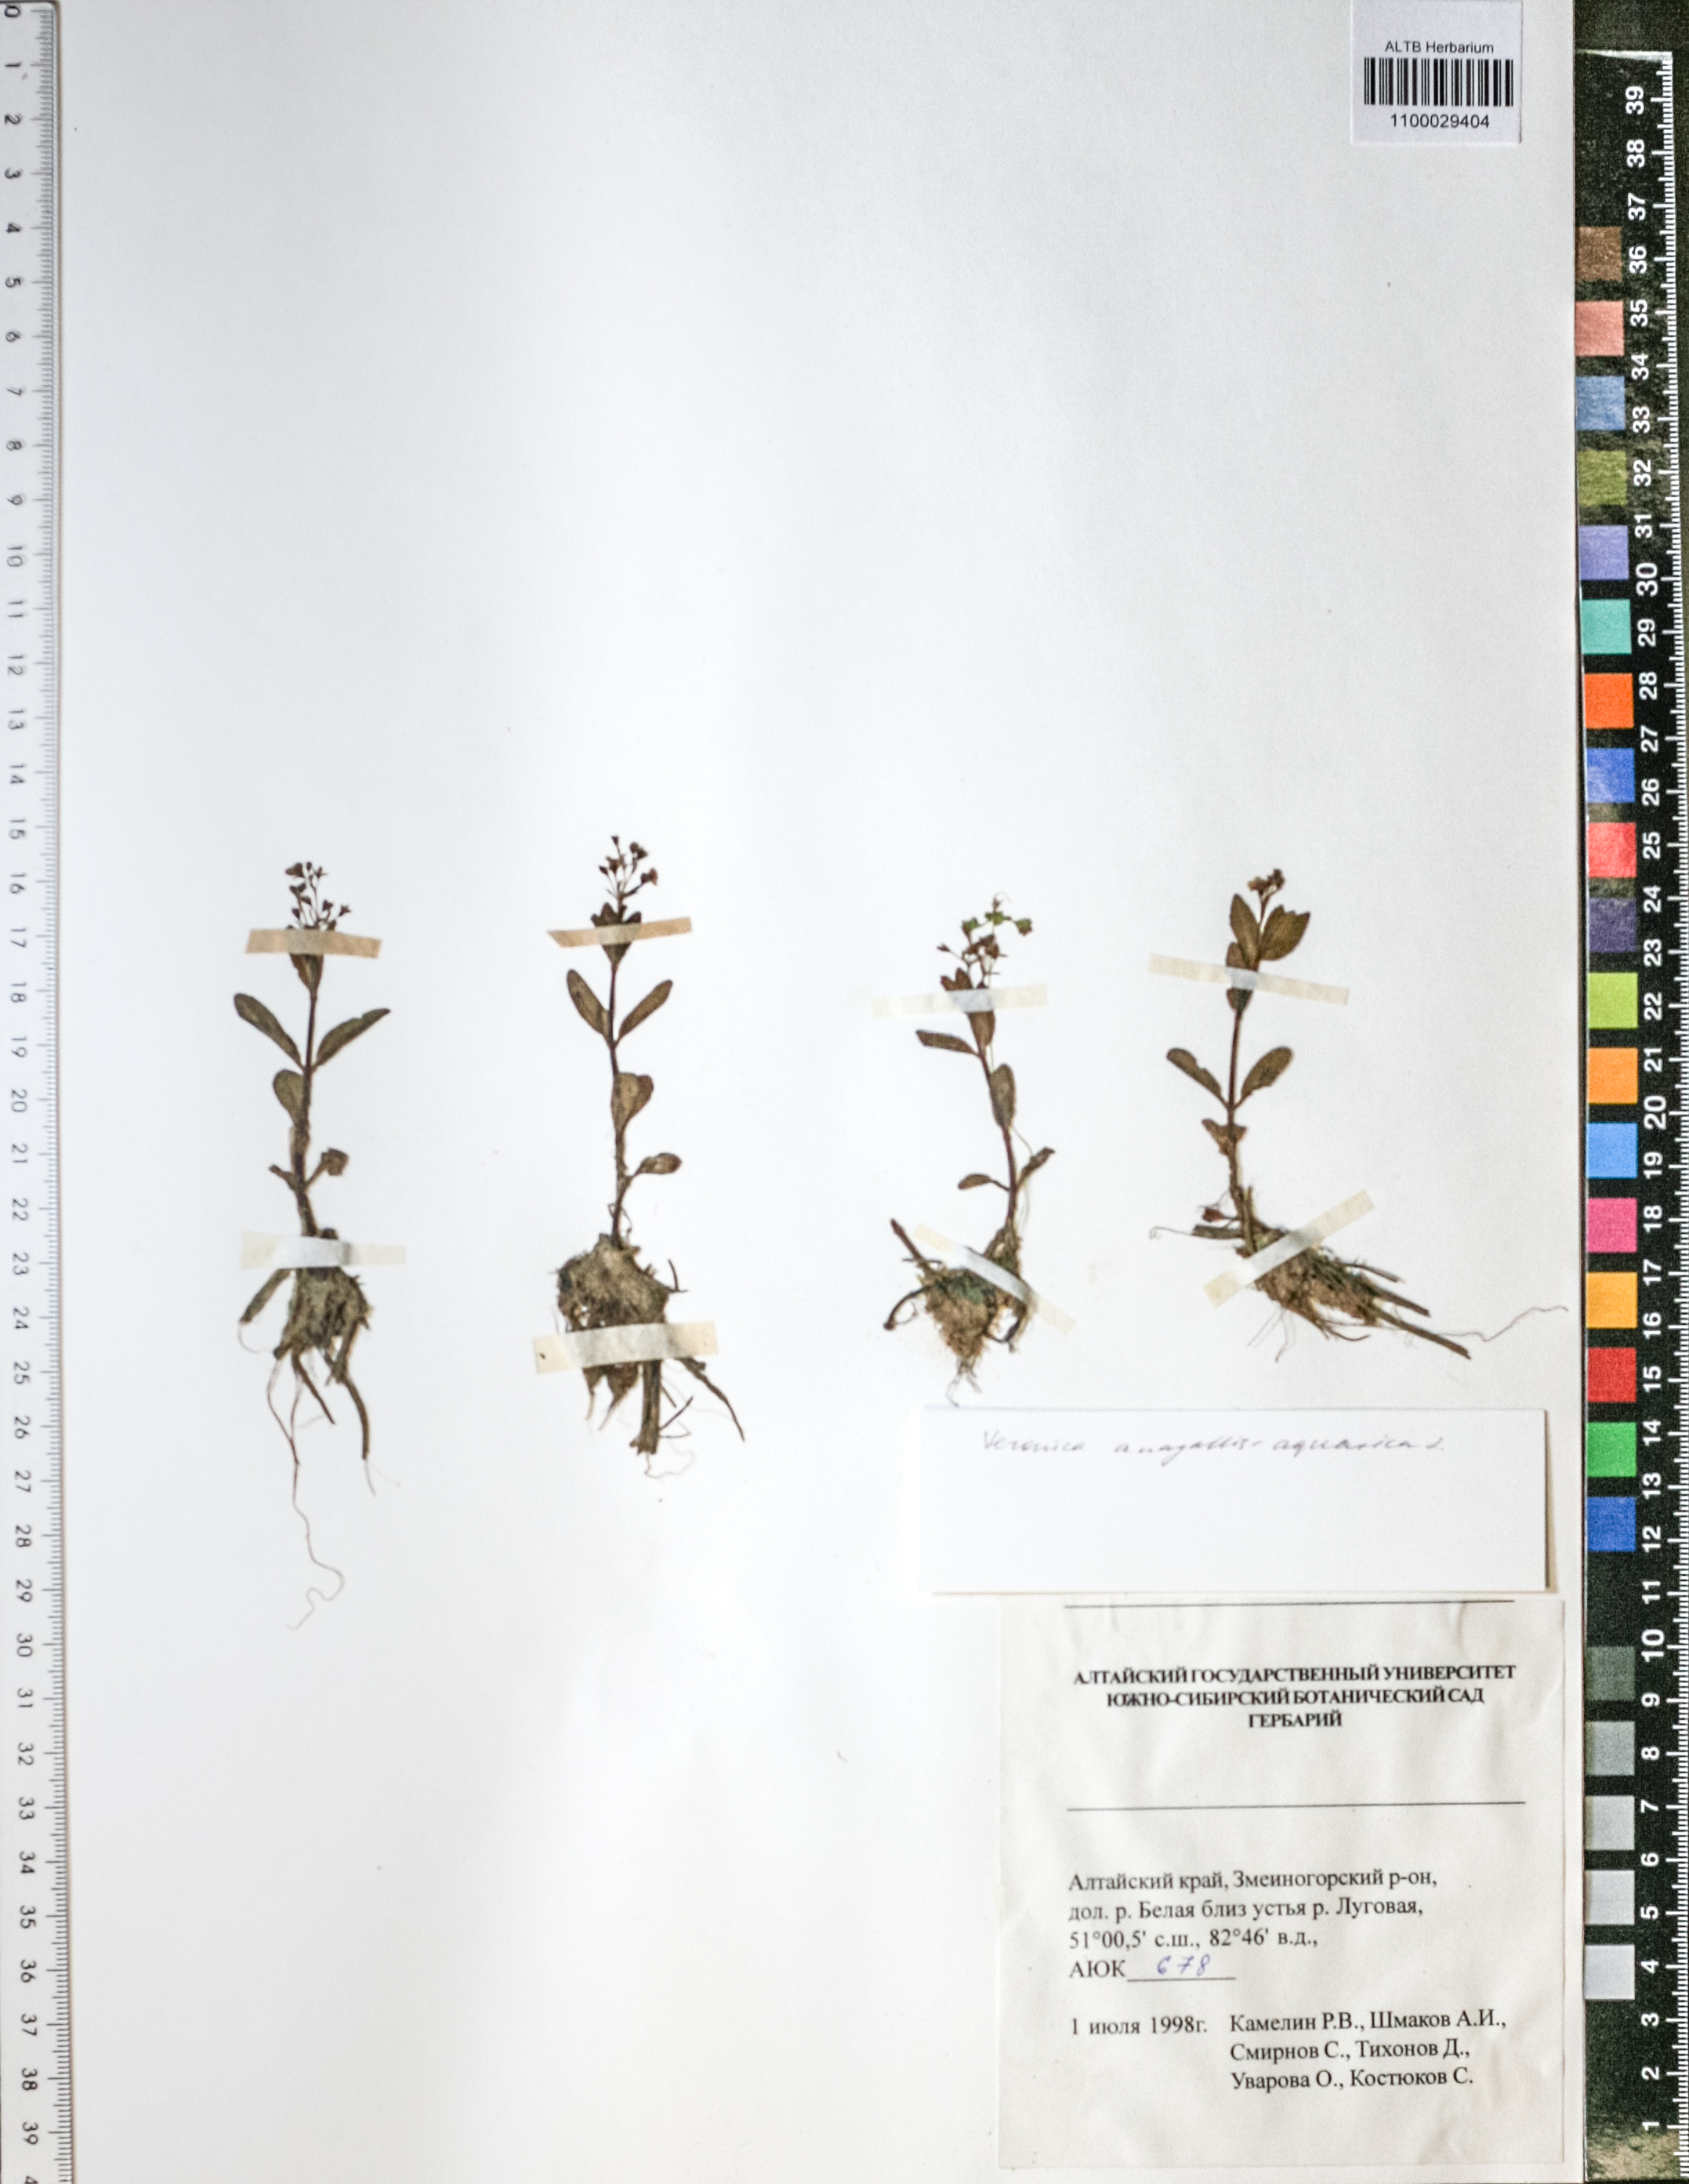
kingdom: Plantae
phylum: Tracheophyta
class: Magnoliopsida
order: Lamiales
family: Plantaginaceae
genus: Veronica
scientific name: Veronica anagallis-aquatica
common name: Water speedwell
